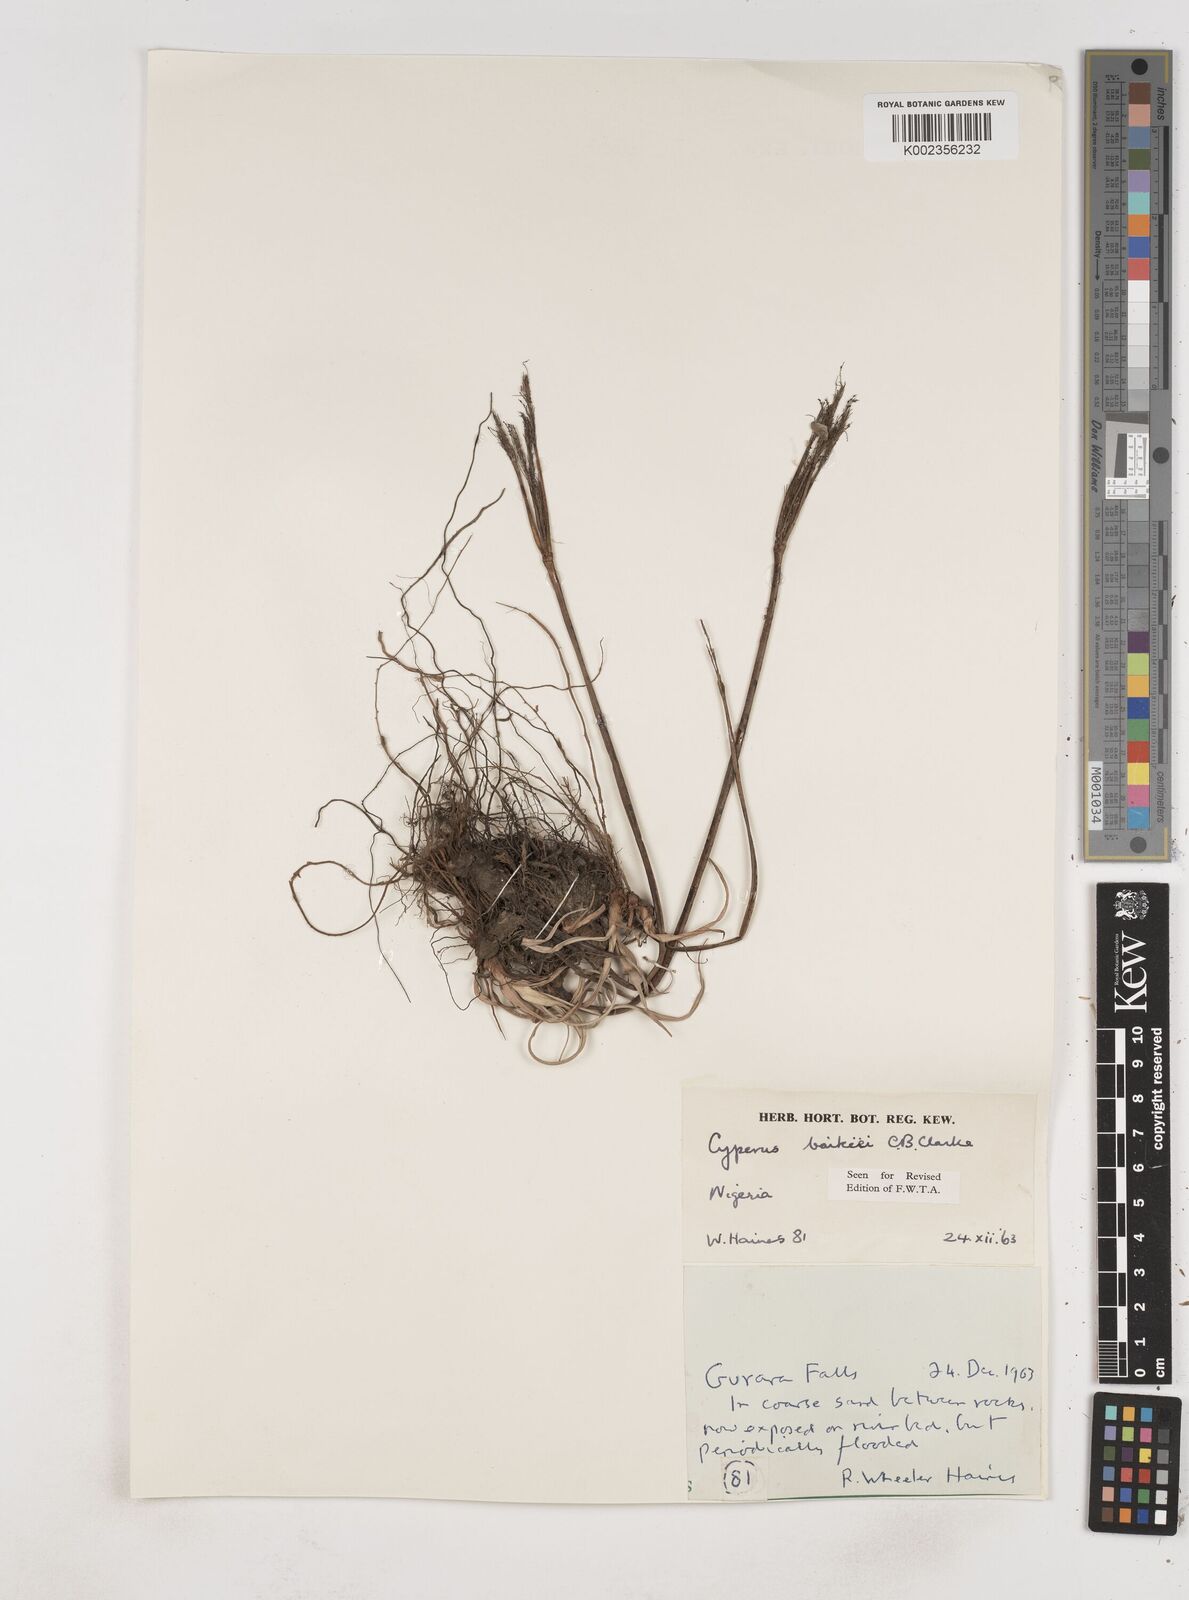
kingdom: Plantae
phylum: Tracheophyta
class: Liliopsida
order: Poales
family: Cyperaceae
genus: Cyperus
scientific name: Cyperus tonkinensis
